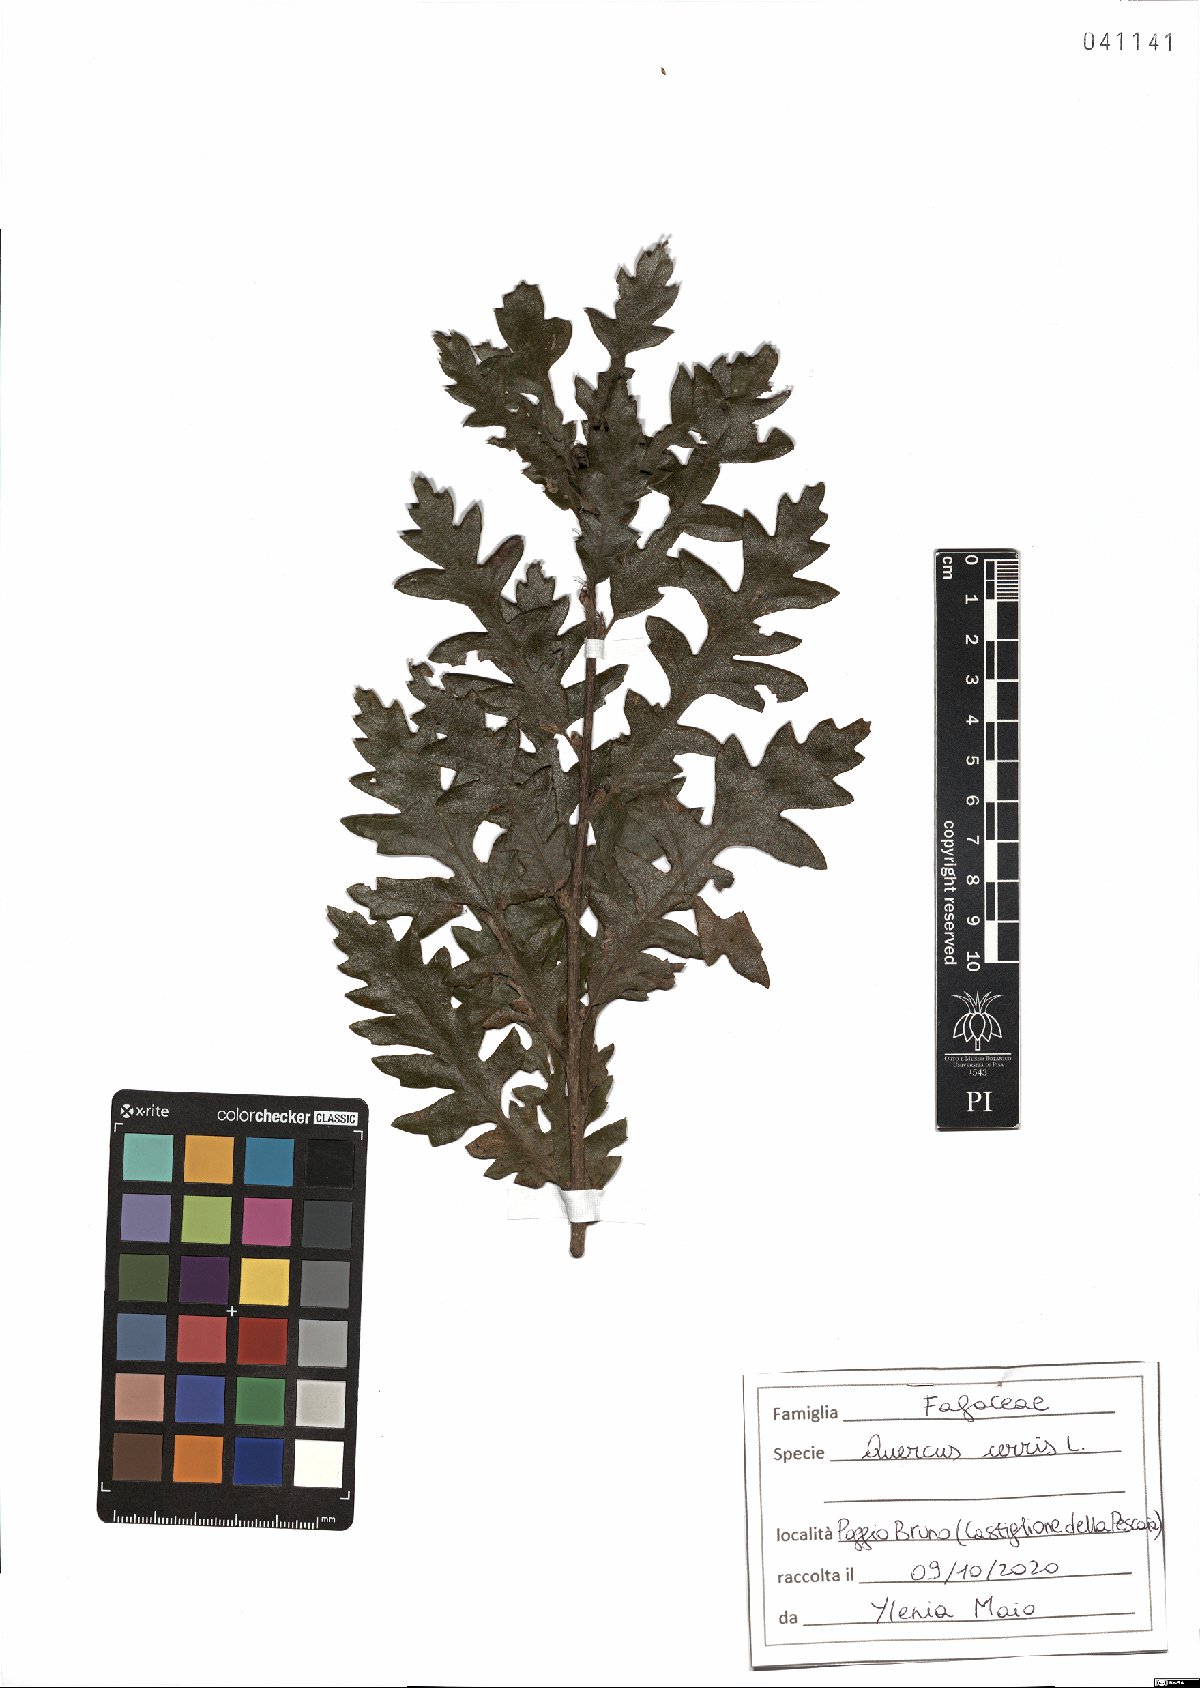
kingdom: Plantae
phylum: Tracheophyta
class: Magnoliopsida
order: Fagales
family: Fagaceae
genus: Quercus
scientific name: Quercus cerris
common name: Turkey oak
